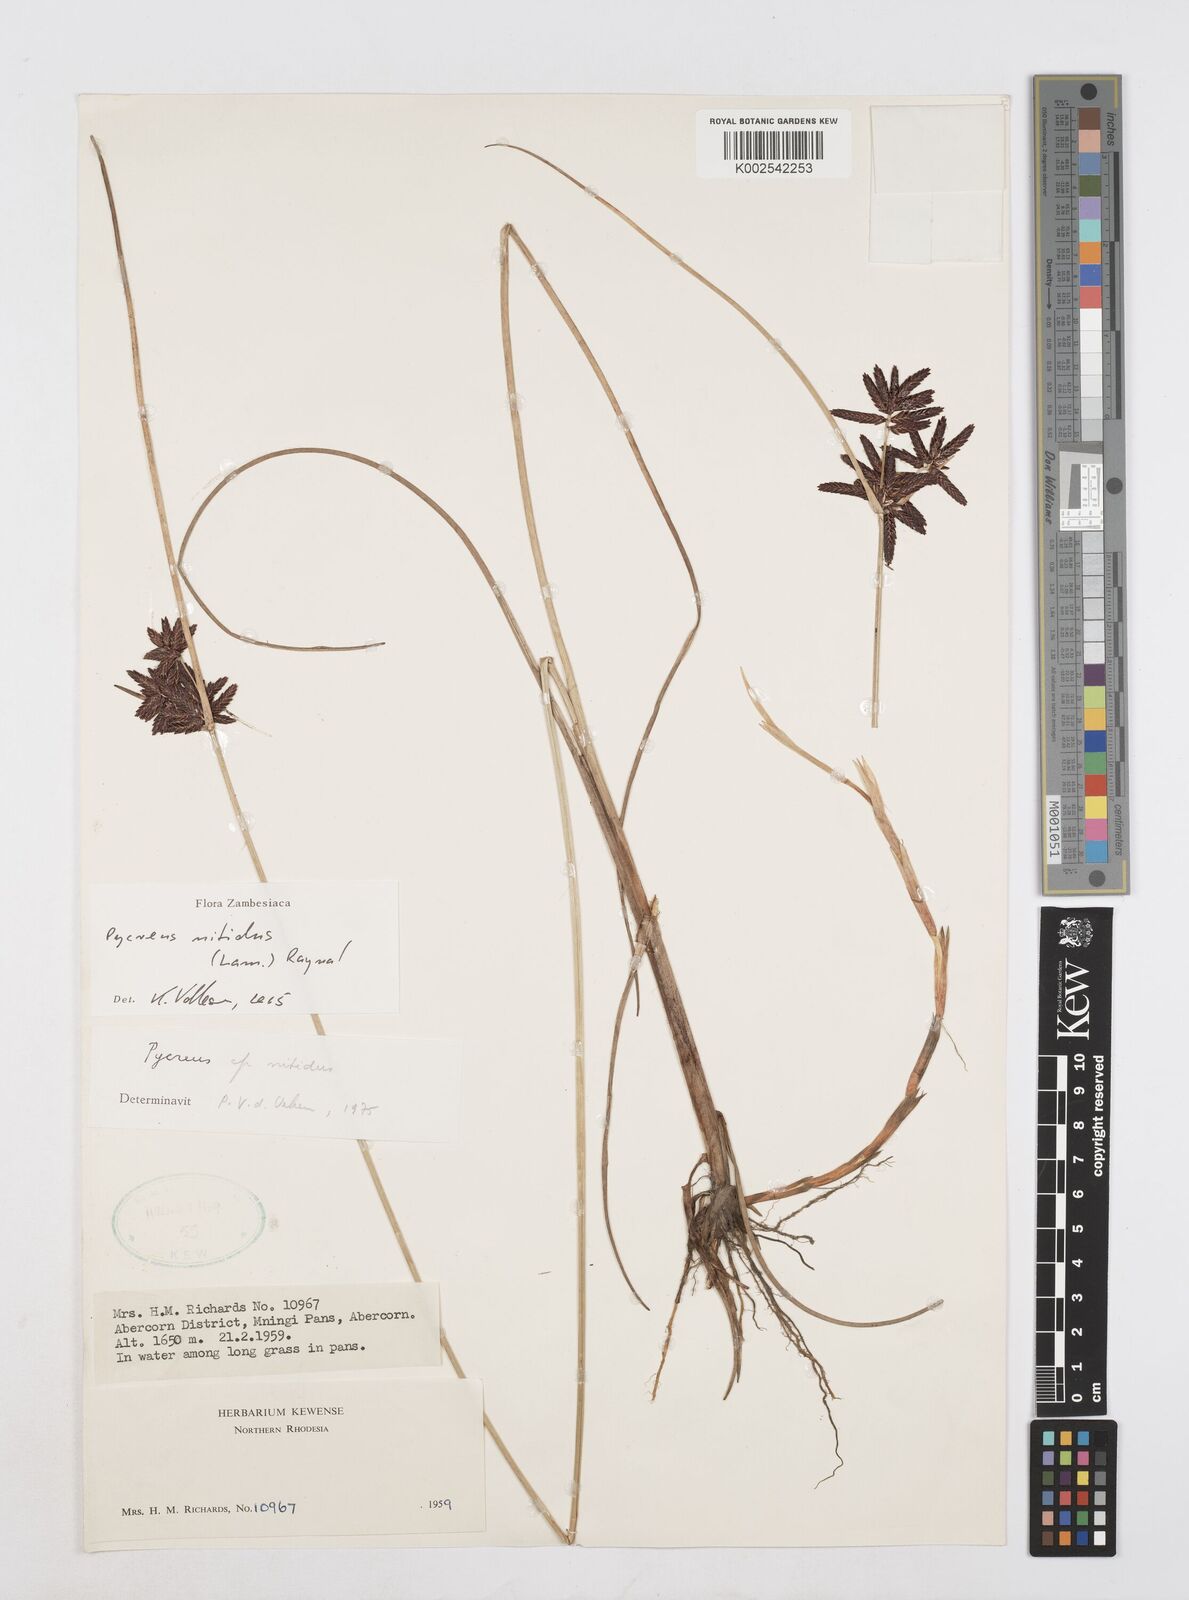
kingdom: Plantae
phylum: Tracheophyta
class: Liliopsida
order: Poales
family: Cyperaceae
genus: Cyperus
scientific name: Cyperus nitidus
